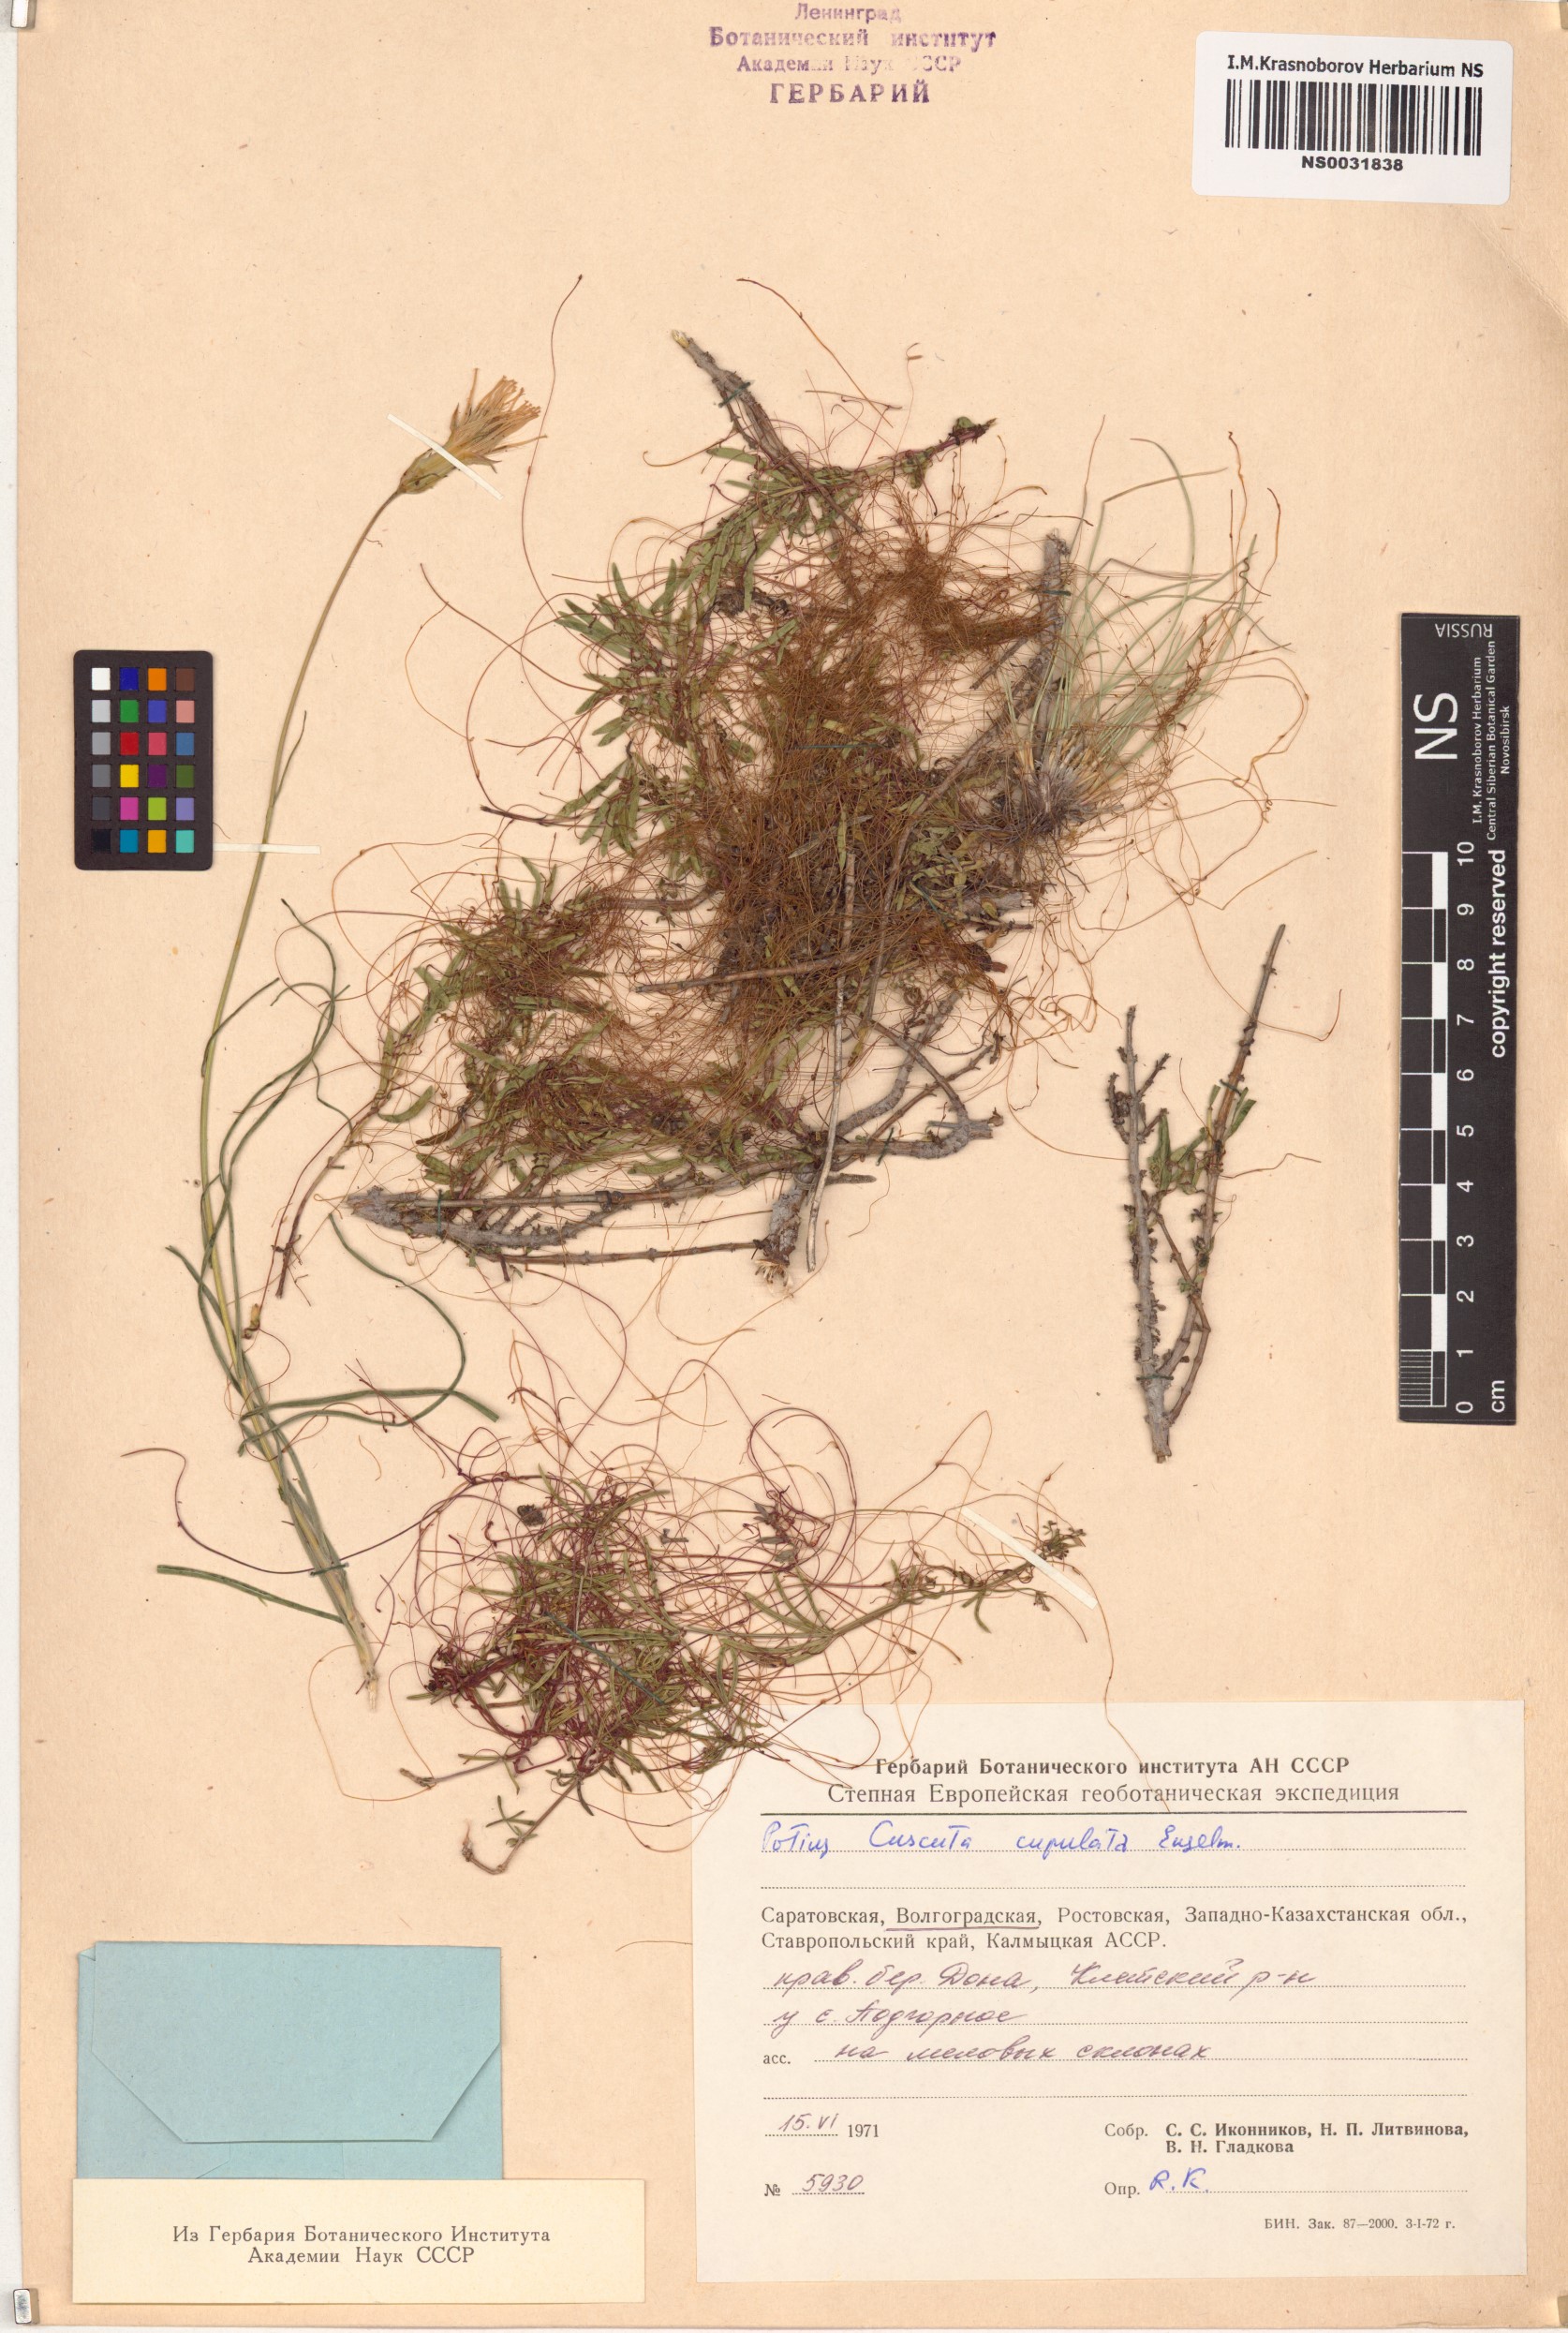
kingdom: Plantae
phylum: Tracheophyta
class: Magnoliopsida
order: Solanales
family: Convolvulaceae
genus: Cuscuta
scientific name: Cuscuta approximata
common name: Alfalfa dodder
